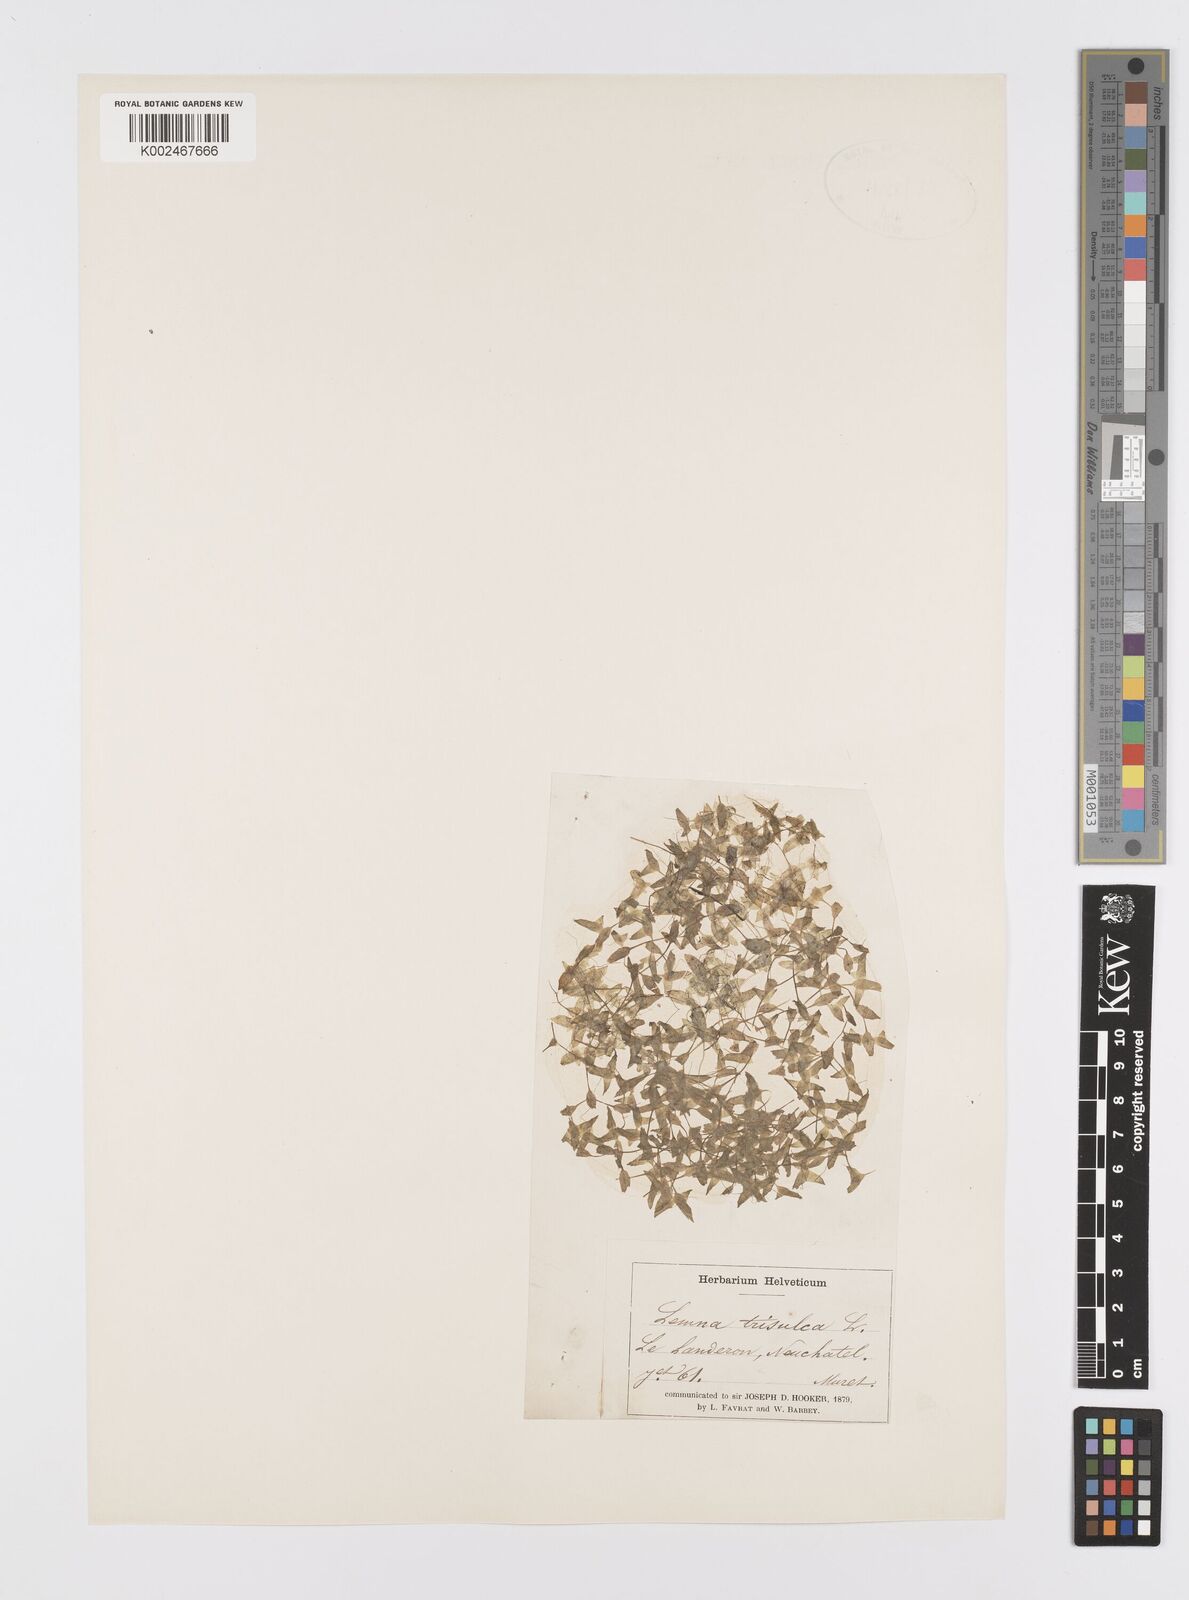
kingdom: Plantae
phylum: Tracheophyta
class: Liliopsida
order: Alismatales
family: Araceae
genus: Lemna
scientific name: Lemna trisulca
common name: Ivy-leaved duckweed
